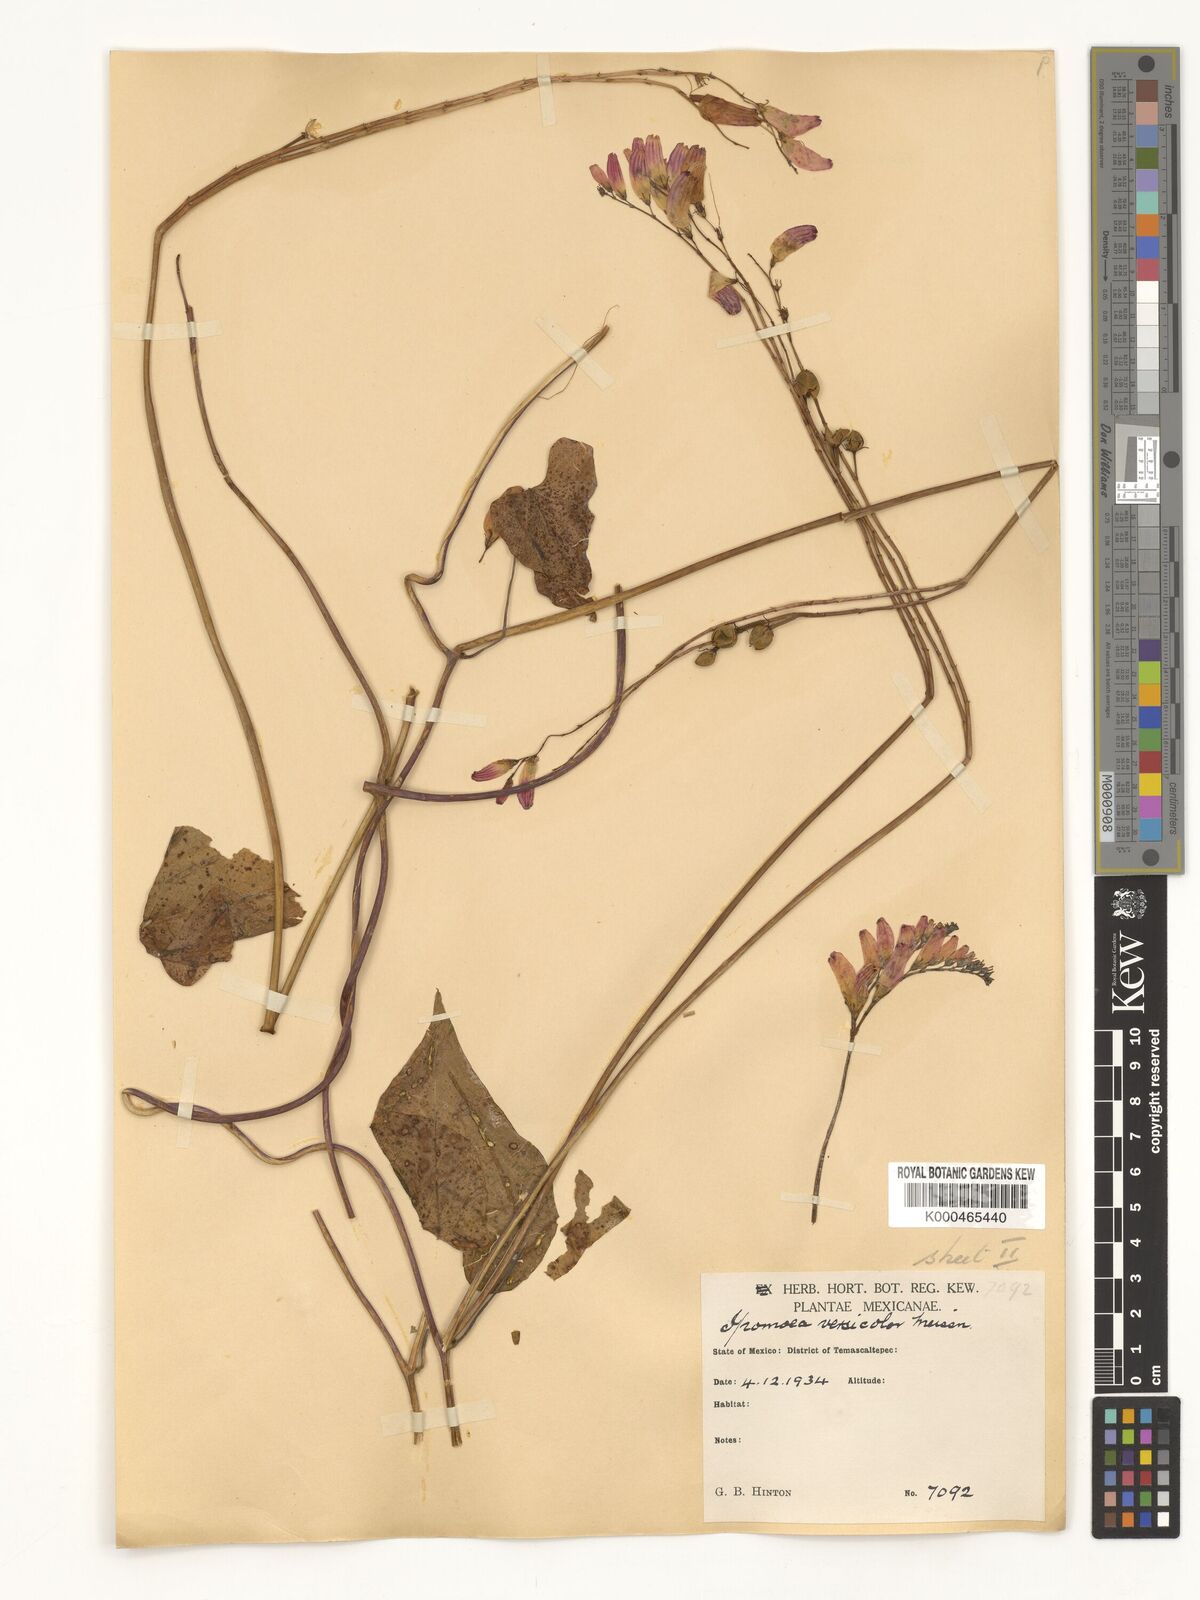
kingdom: Plantae
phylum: Tracheophyta
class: Magnoliopsida
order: Solanales
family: Convolvulaceae
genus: Ipomoea
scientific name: Ipomoea lobata
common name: Spanish-flag
